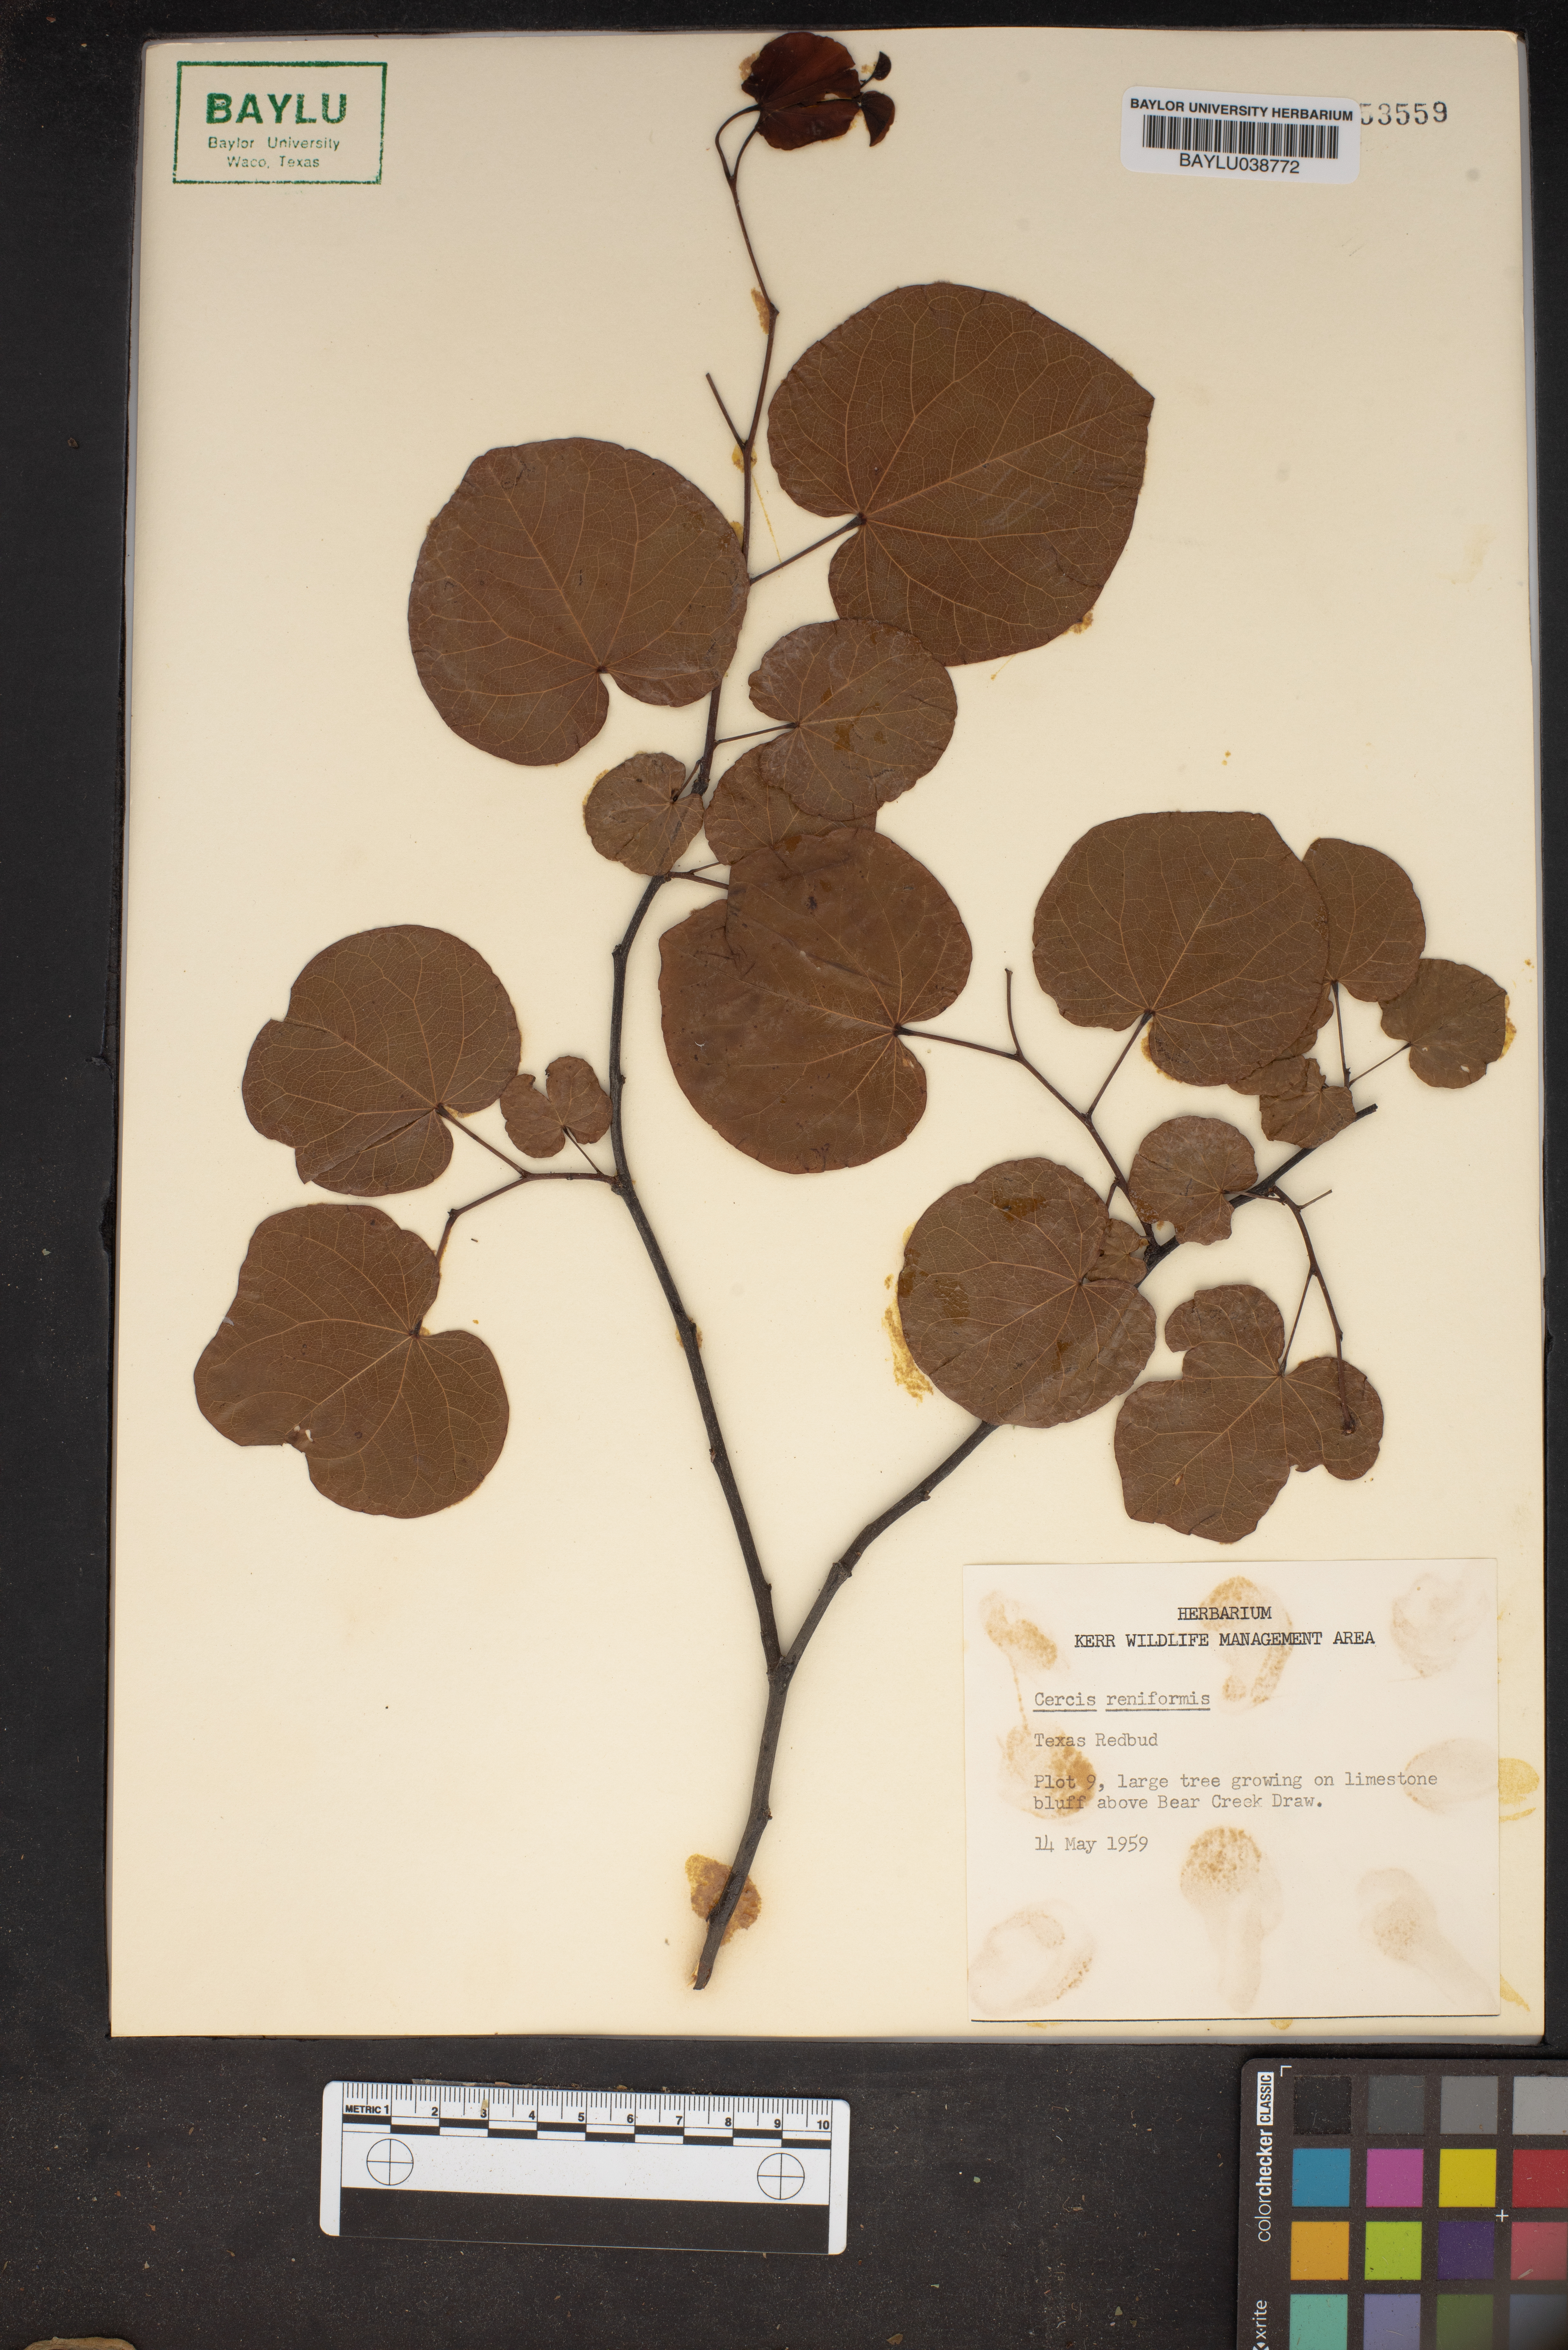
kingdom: Plantae
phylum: Tracheophyta
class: Magnoliopsida
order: Fabales
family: Fabaceae
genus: Cercis
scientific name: Cercis canadensis
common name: Eastern redbud
